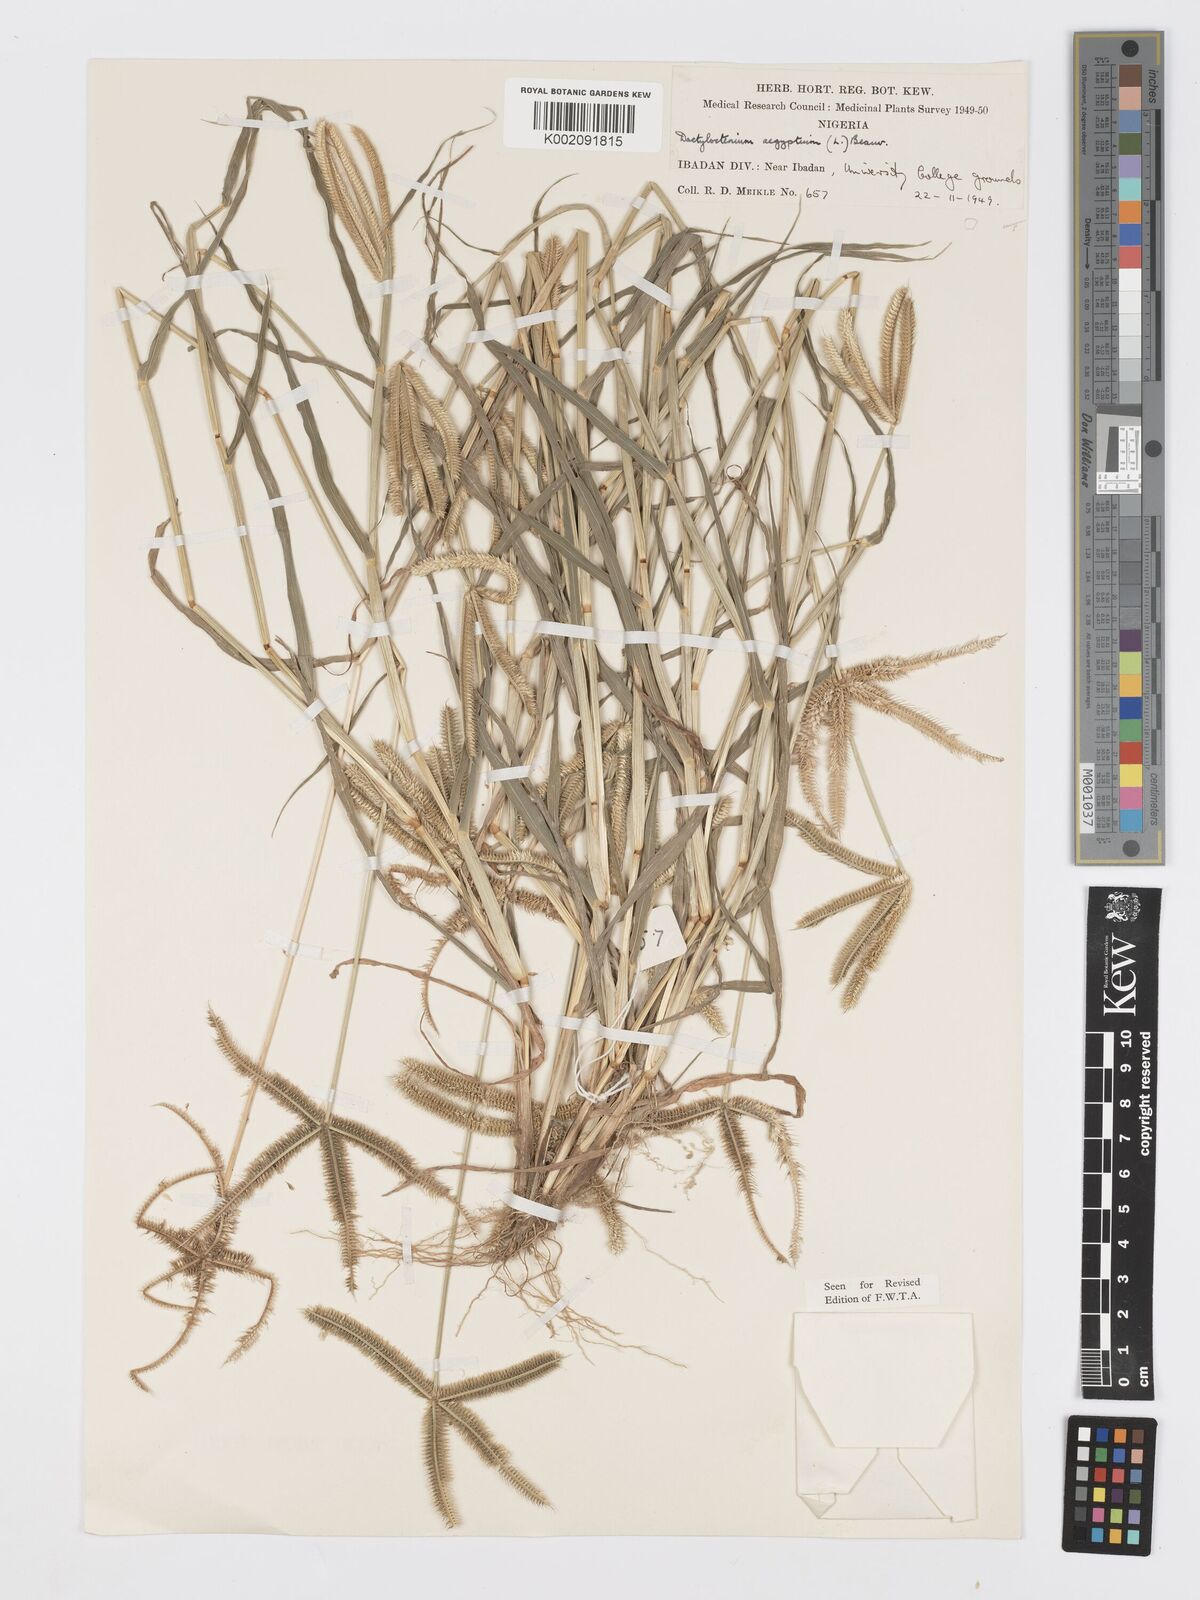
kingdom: Plantae
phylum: Tracheophyta
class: Liliopsida
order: Poales
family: Poaceae
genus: Dactyloctenium
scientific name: Dactyloctenium aegyptium
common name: Egyptian grass
